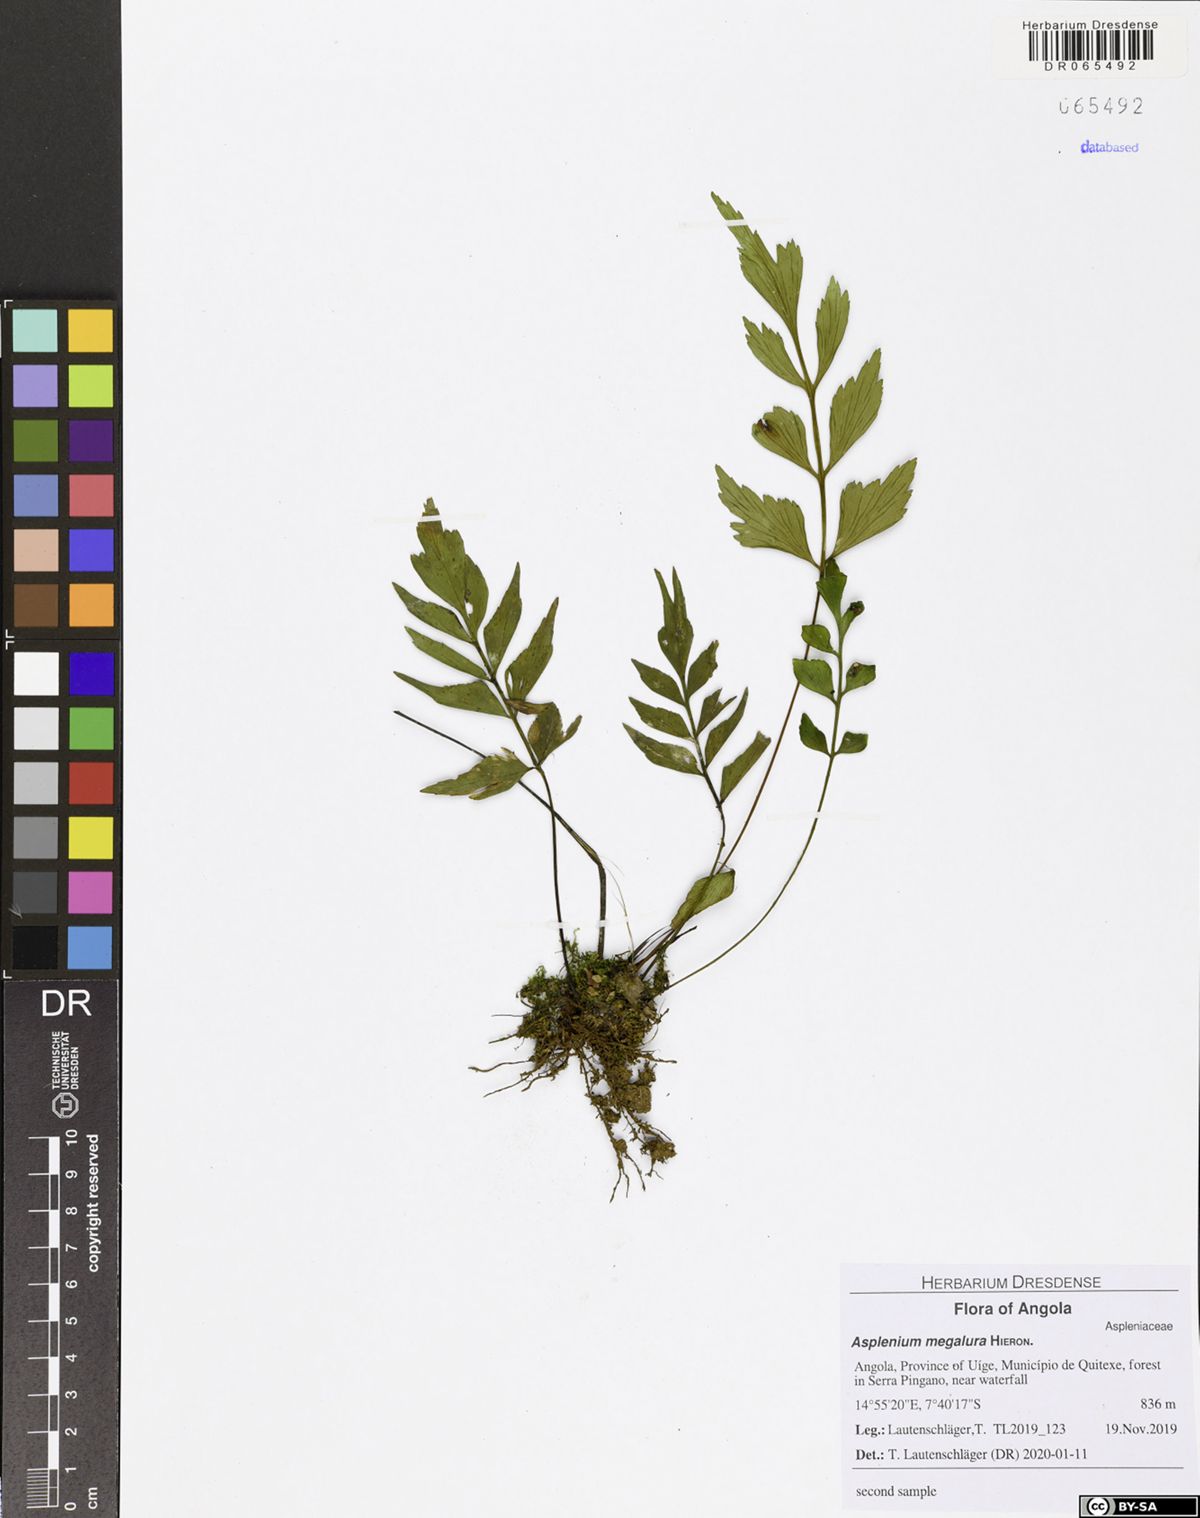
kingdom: Plantae
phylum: Tracheophyta
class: Polypodiopsida
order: Polypodiales
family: Aspleniaceae
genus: Asplenium
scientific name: Asplenium megalura
